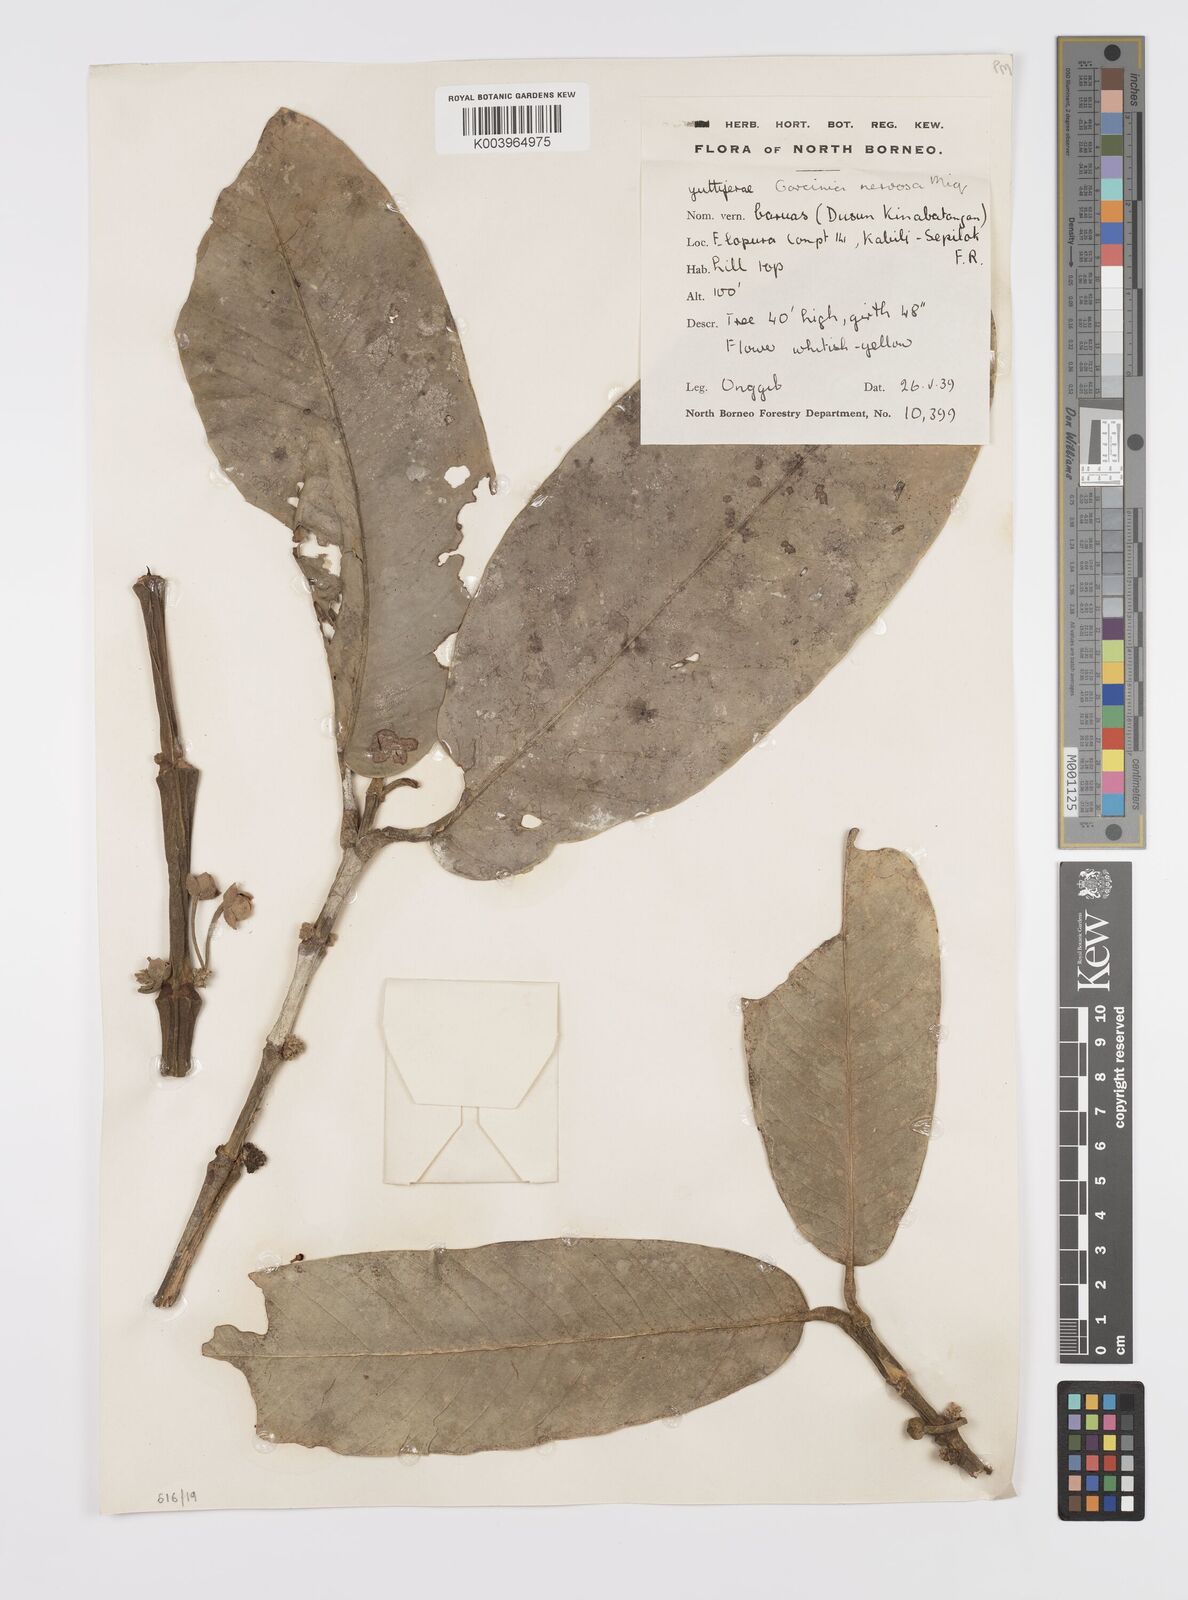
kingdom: Plantae
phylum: Tracheophyta
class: Magnoliopsida
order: Malpighiales
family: Clusiaceae
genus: Garcinia
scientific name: Garcinia nervosa
